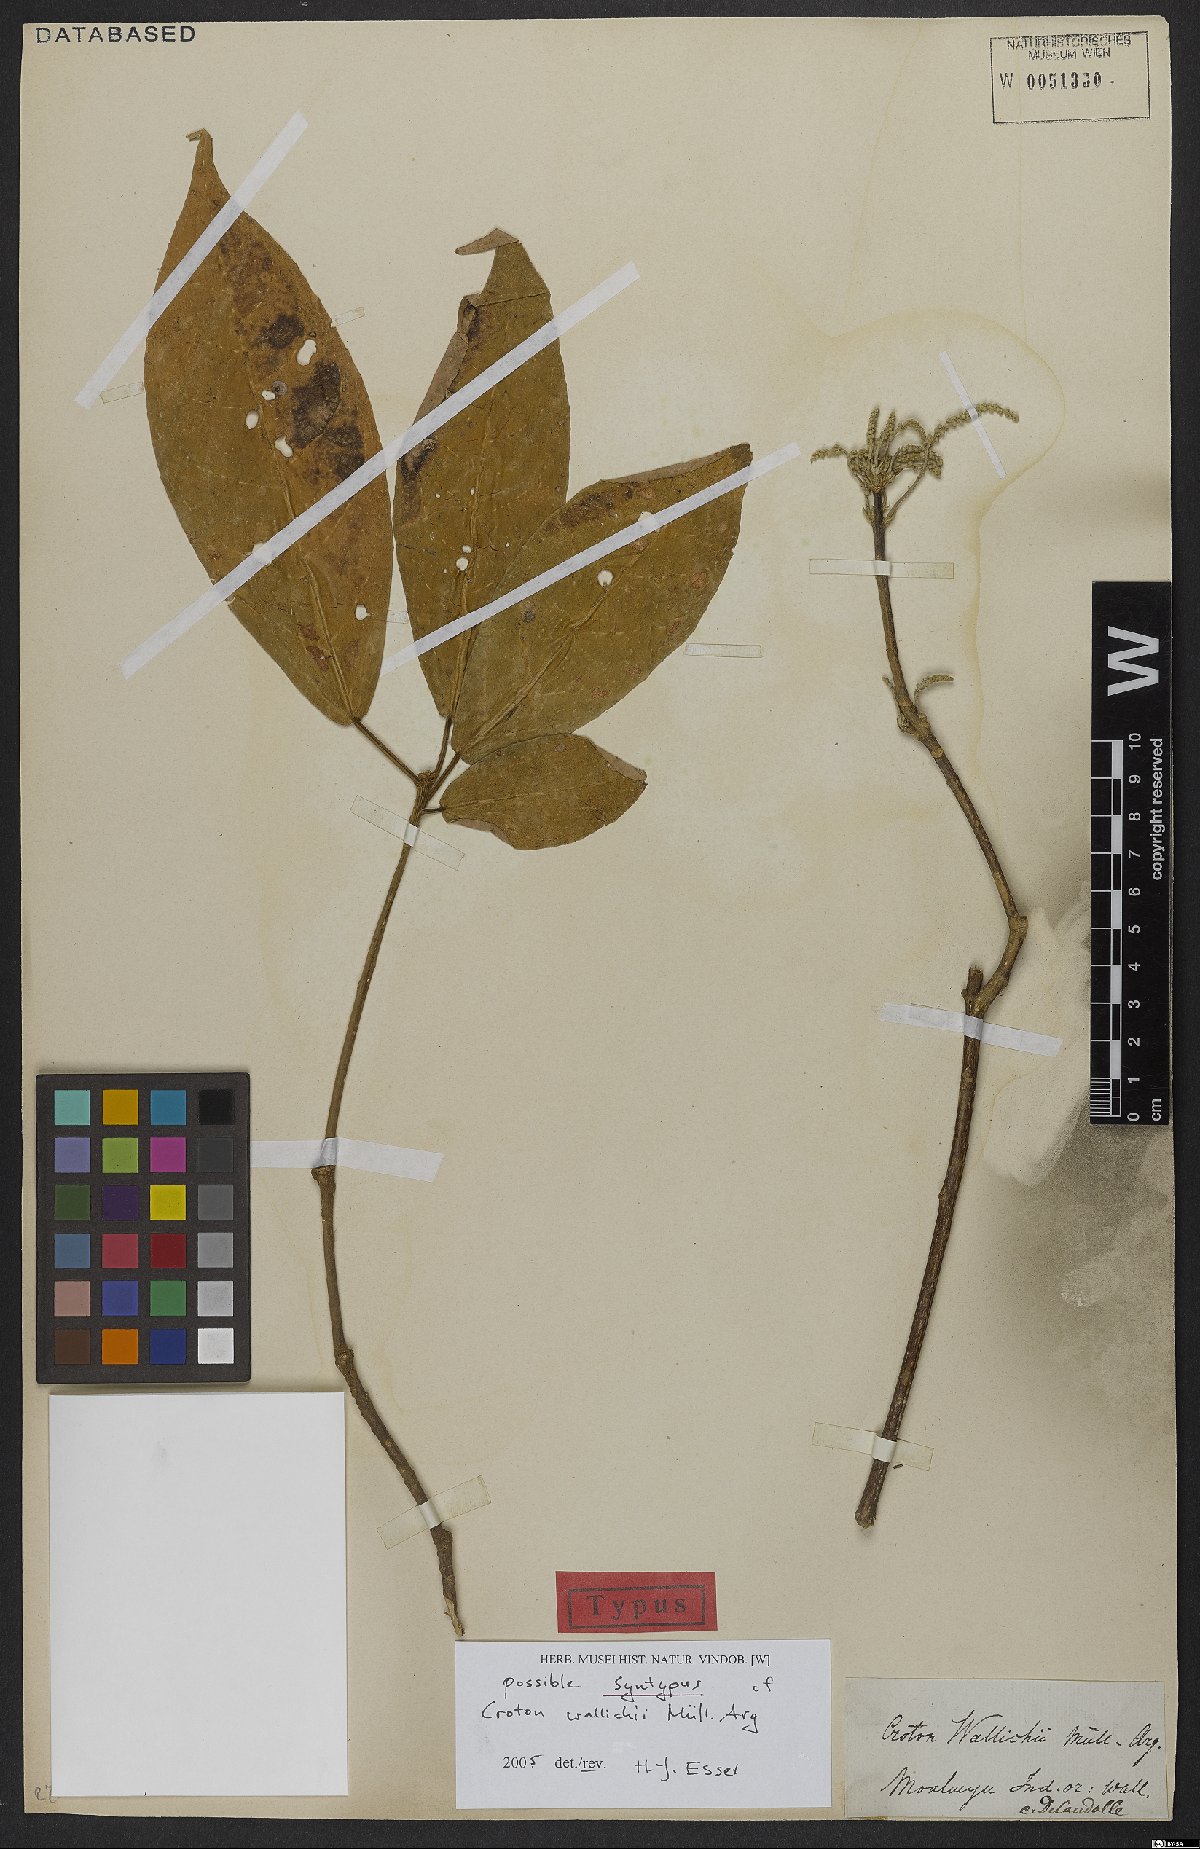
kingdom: Plantae
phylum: Tracheophyta
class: Liliopsida
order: Asparagales
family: Orchidaceae
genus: Habenaria
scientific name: Habenaria floribunda
